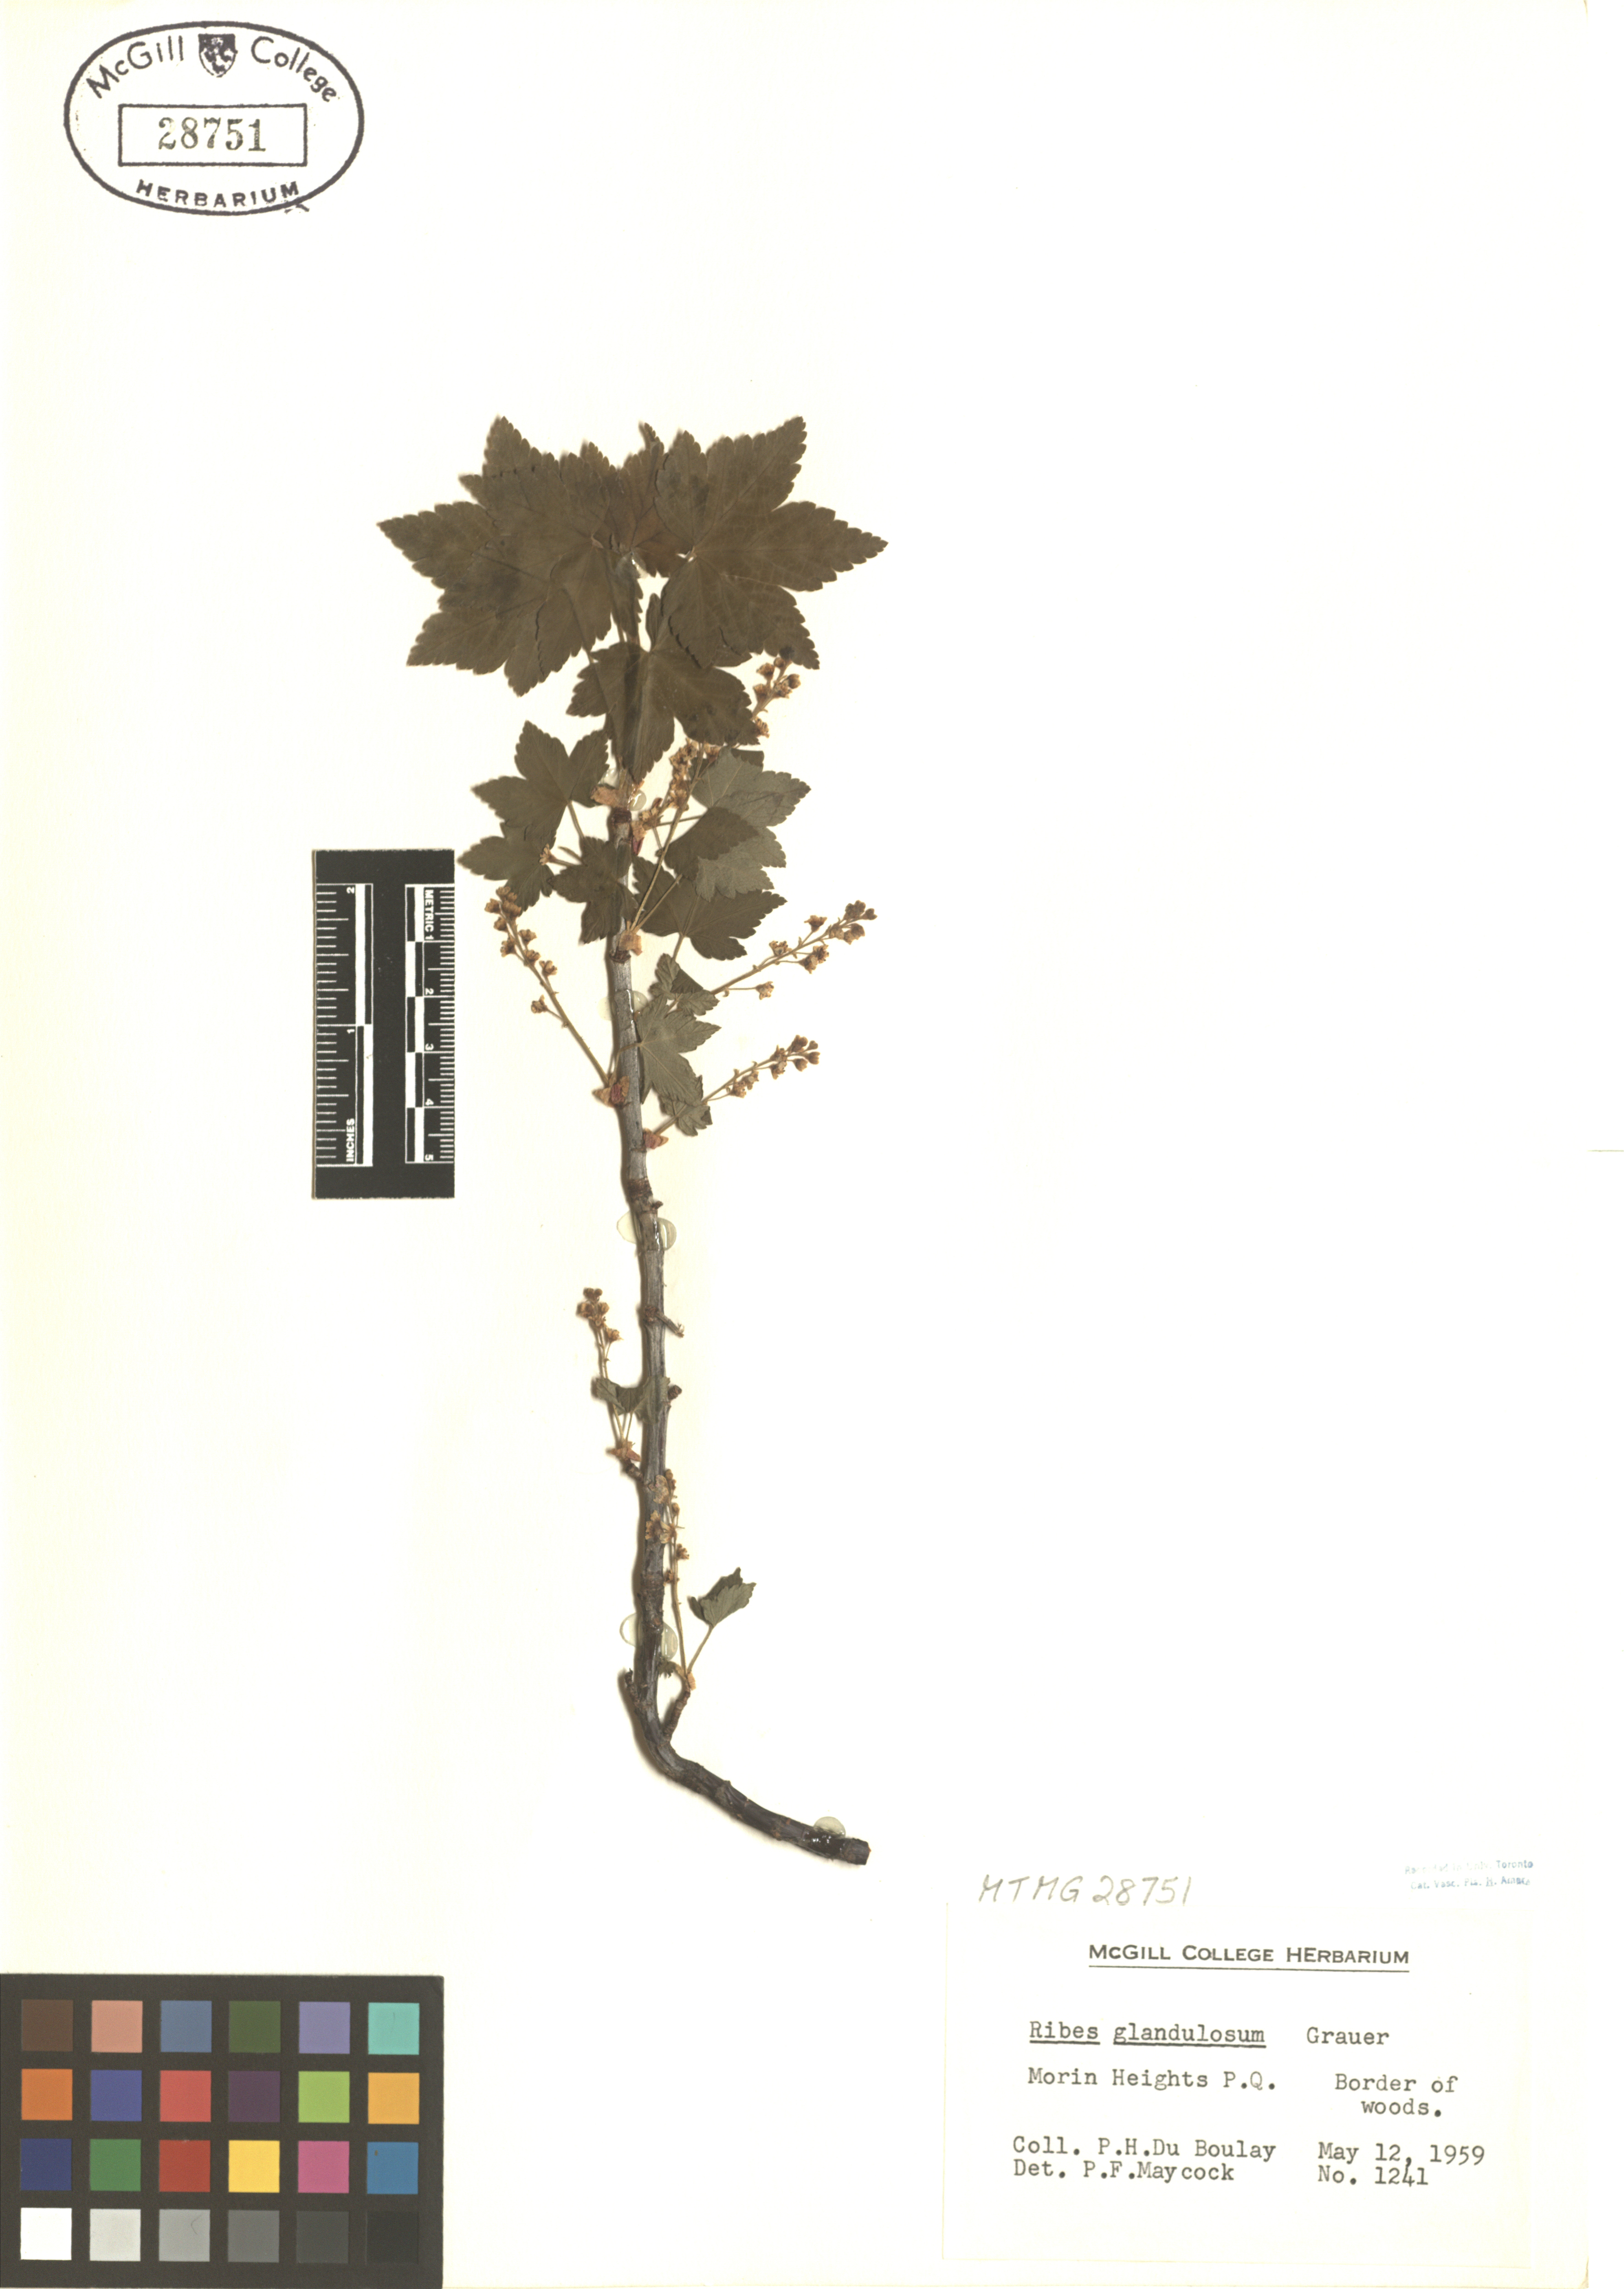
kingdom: Plantae
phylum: Tracheophyta
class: Magnoliopsida
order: Saxifragales
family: Grossulariaceae
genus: Ribes
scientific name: Ribes glandulosum
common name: Skunk currant
